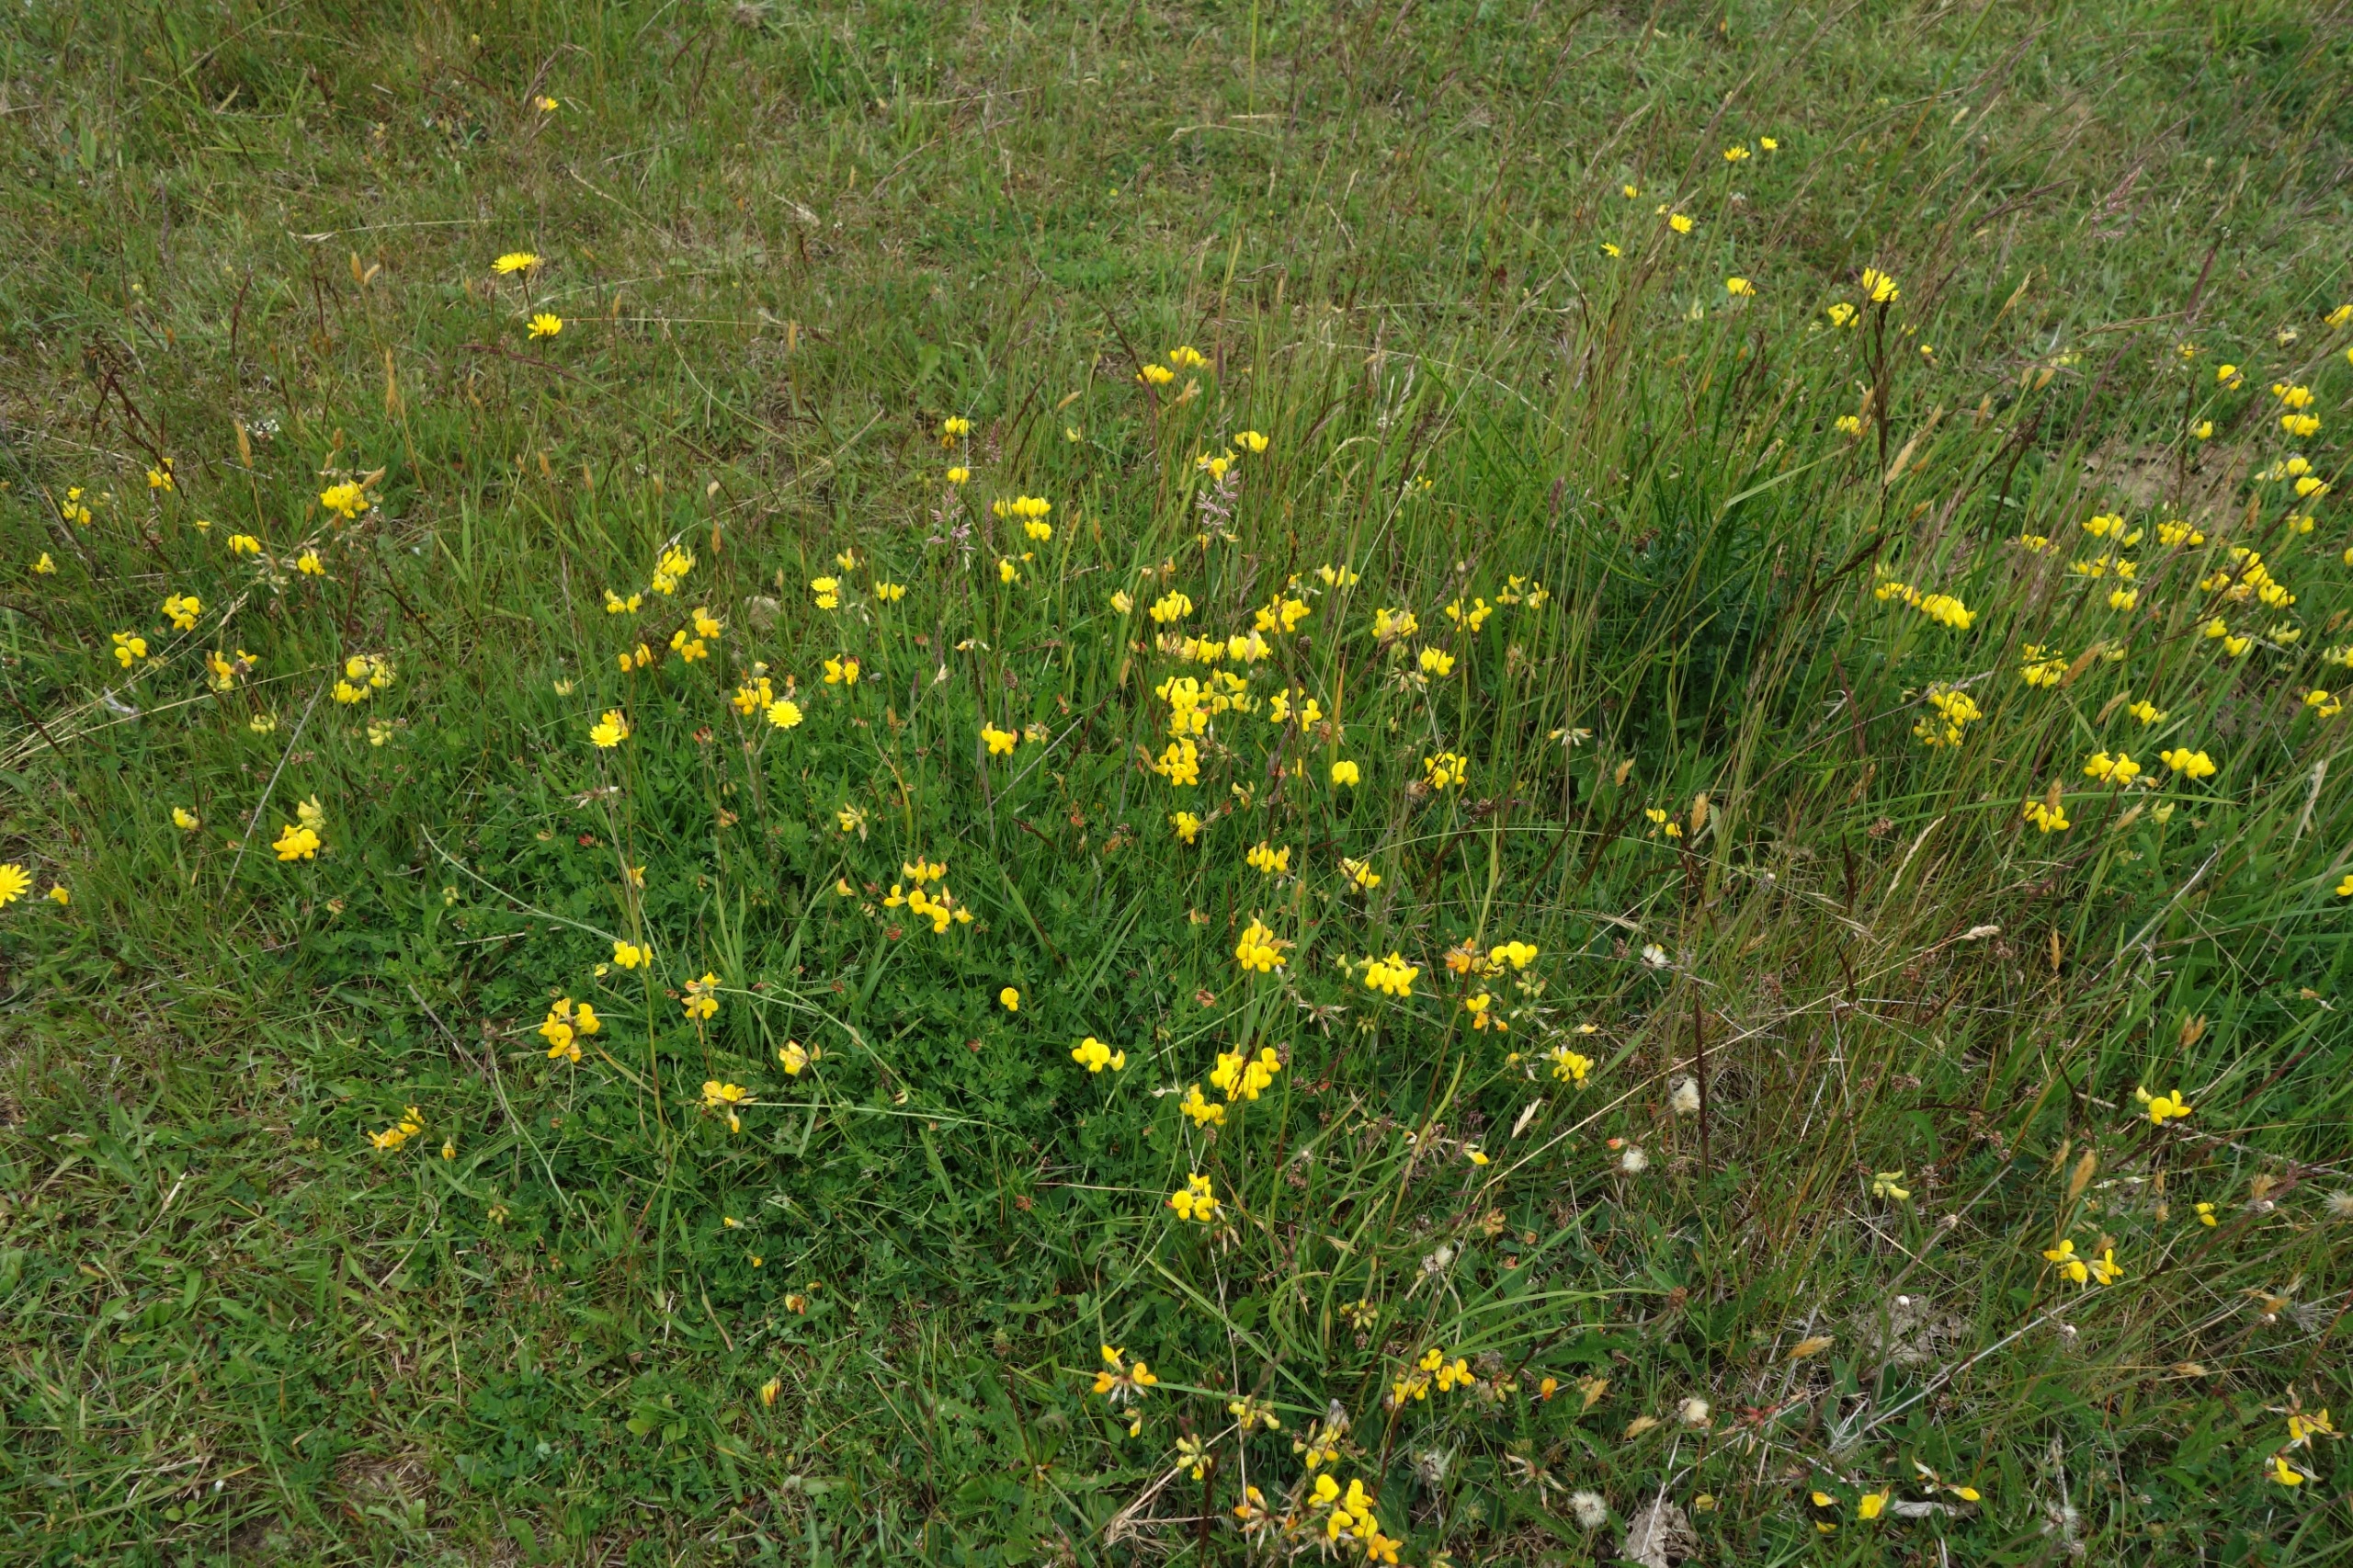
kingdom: Plantae
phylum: Tracheophyta
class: Magnoliopsida
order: Fabales
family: Fabaceae
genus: Lotus
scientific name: Lotus corniculatus
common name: Almindelig kællingetand
